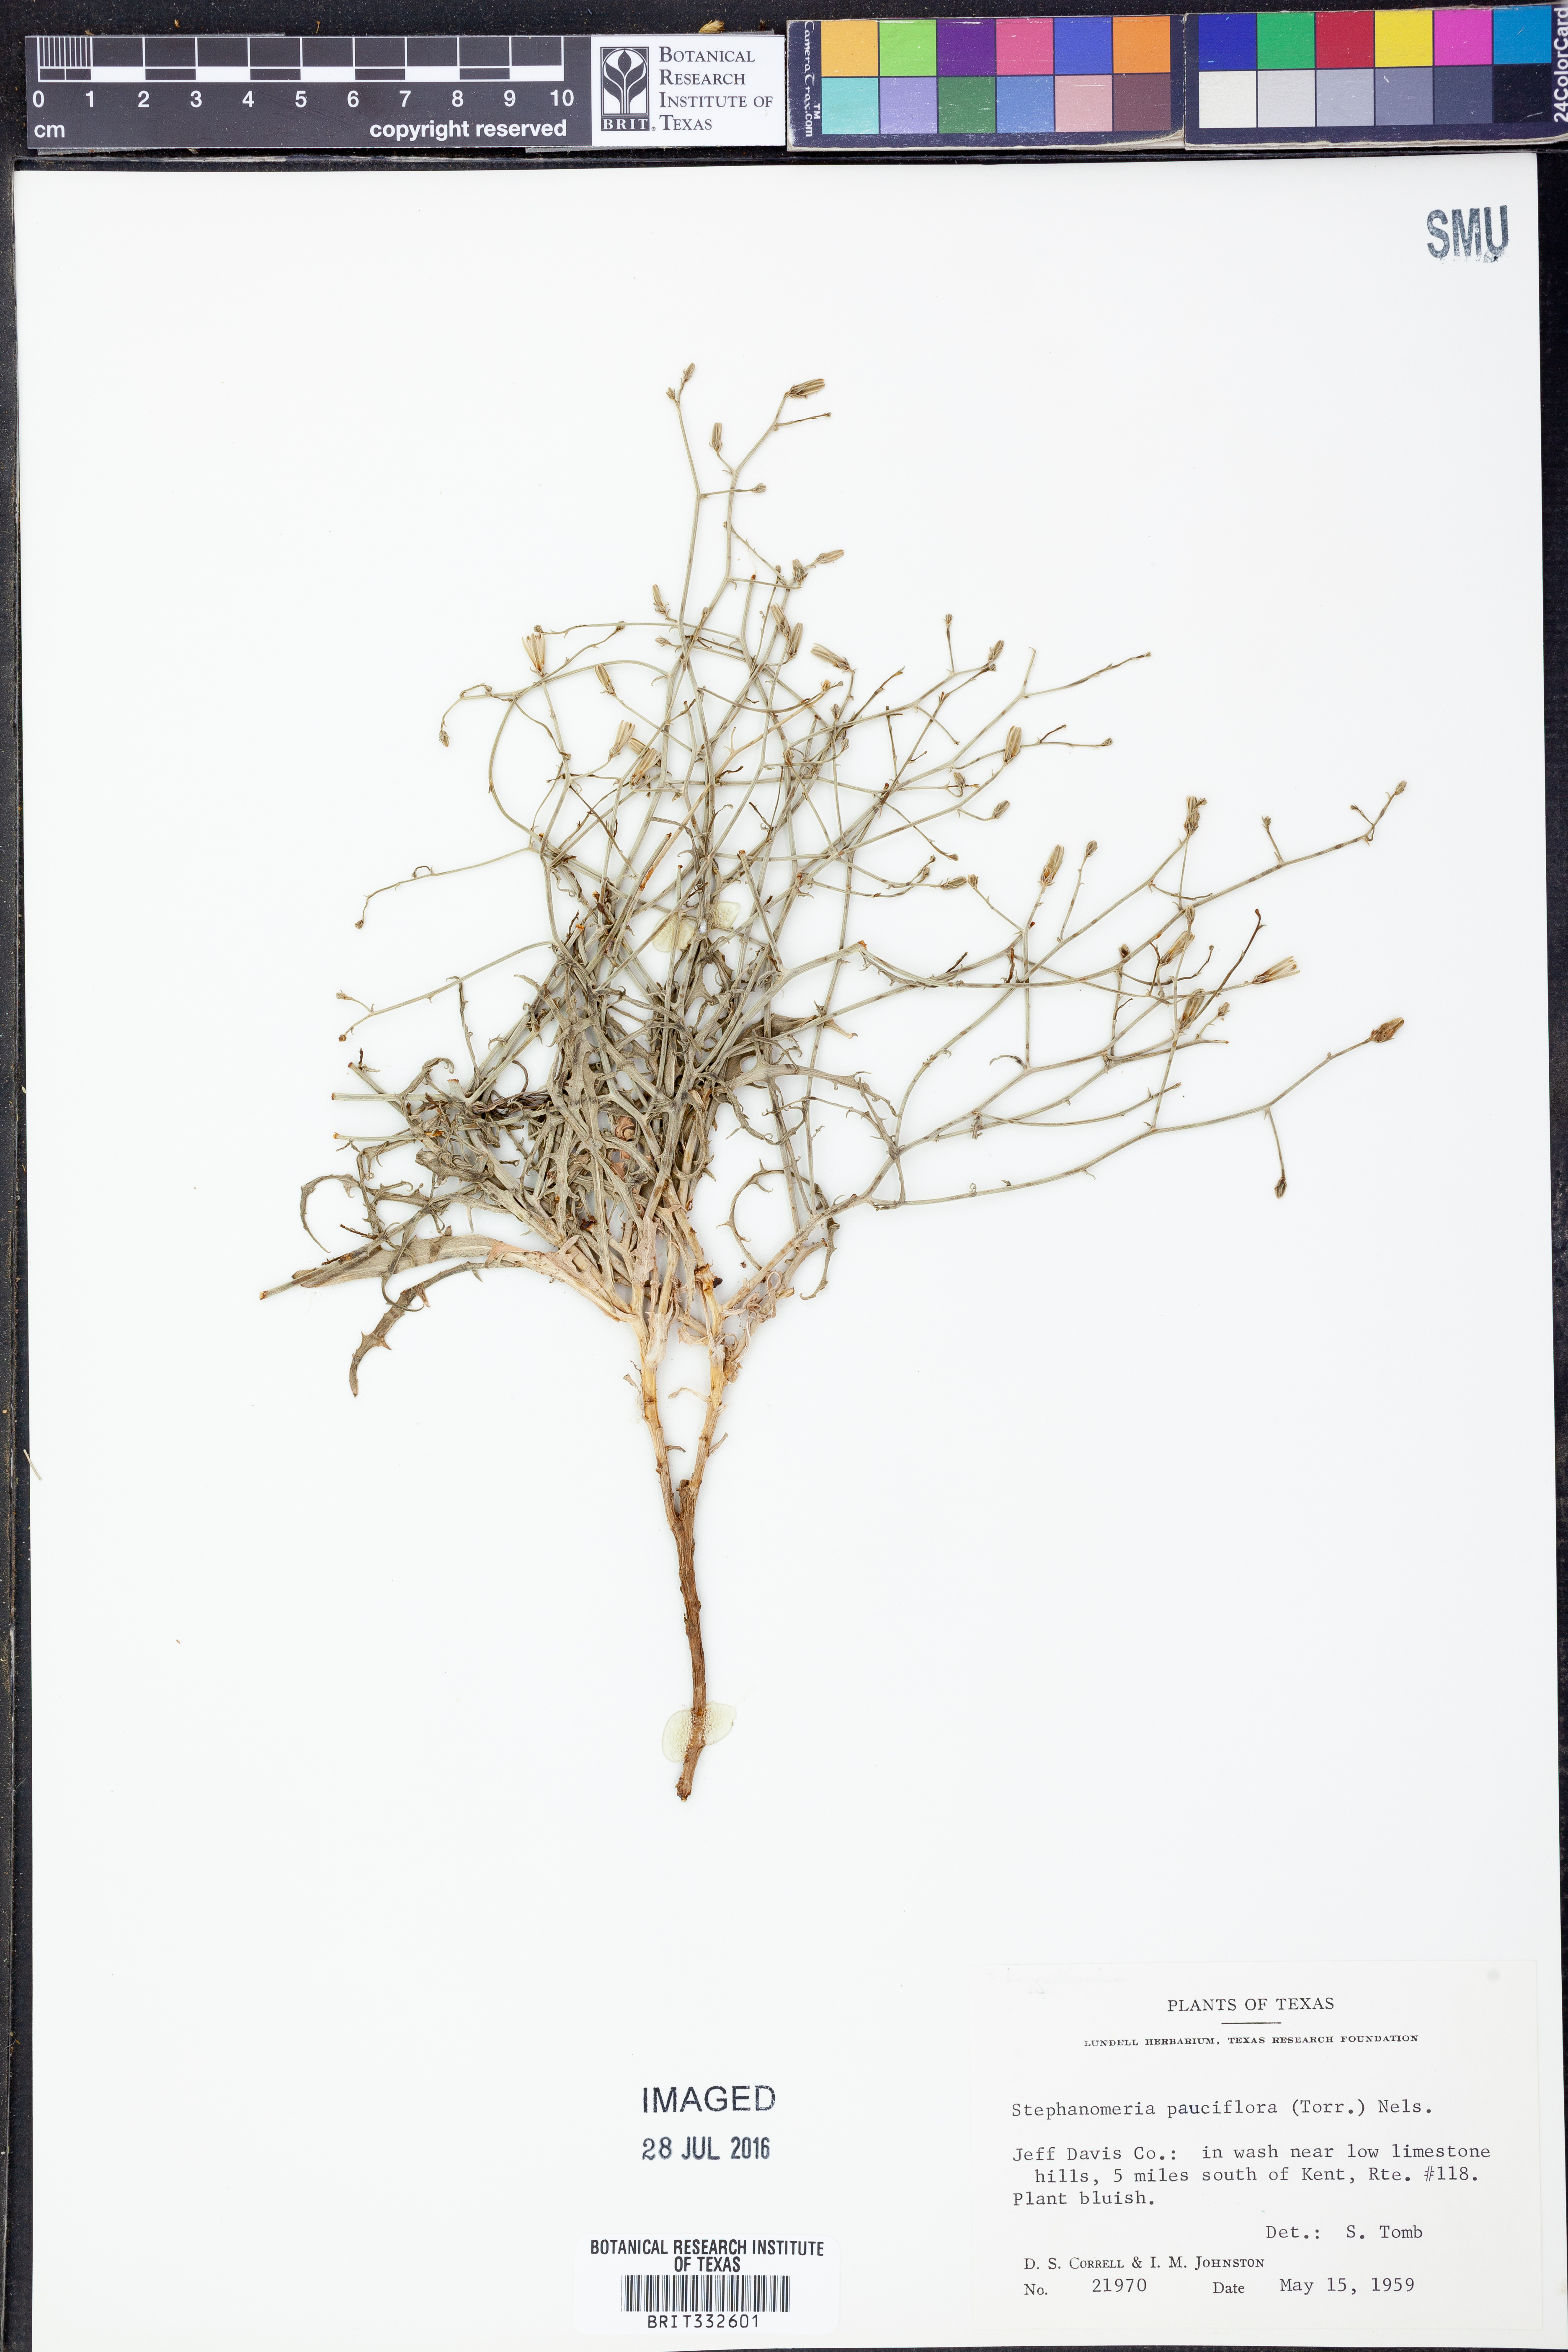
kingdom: Plantae
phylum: Tracheophyta
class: Magnoliopsida
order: Asterales
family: Asteraceae
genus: Stephanomeria
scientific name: Stephanomeria pauciflora
